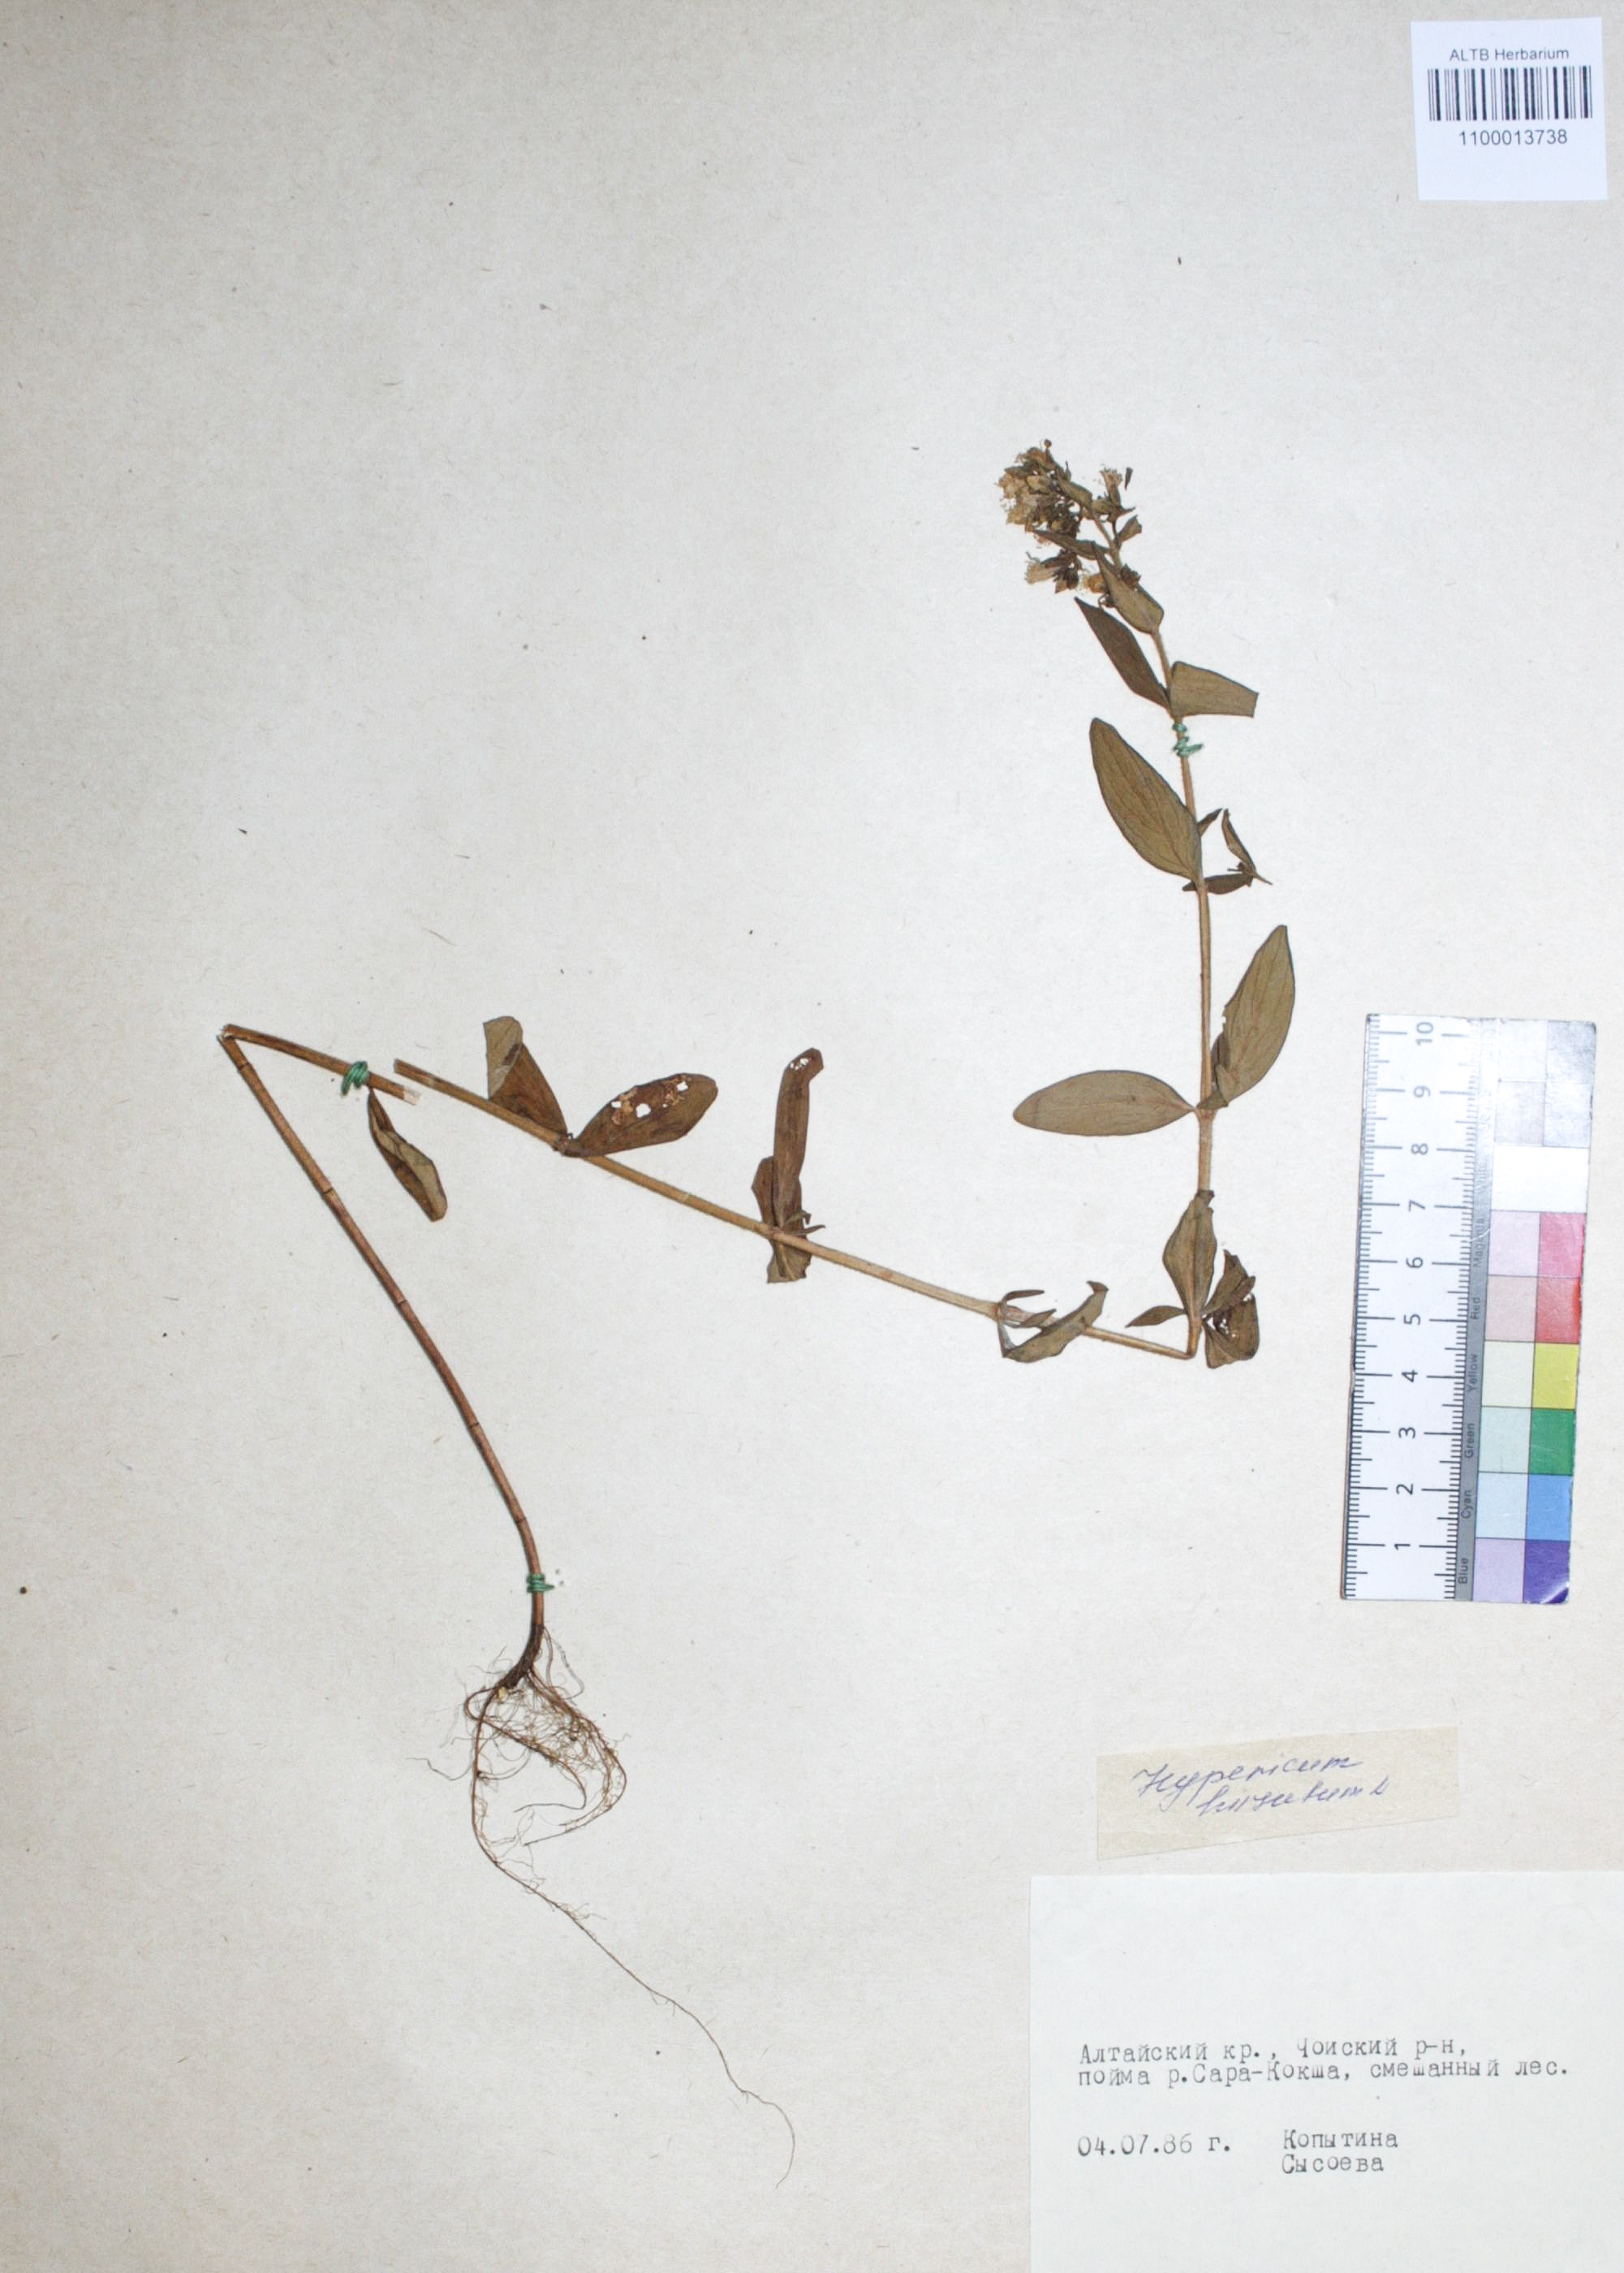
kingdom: Plantae
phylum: Tracheophyta
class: Magnoliopsida
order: Malpighiales
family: Hypericaceae
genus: Hypericum
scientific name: Hypericum hirsutum
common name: Hairy st. john's-wort
